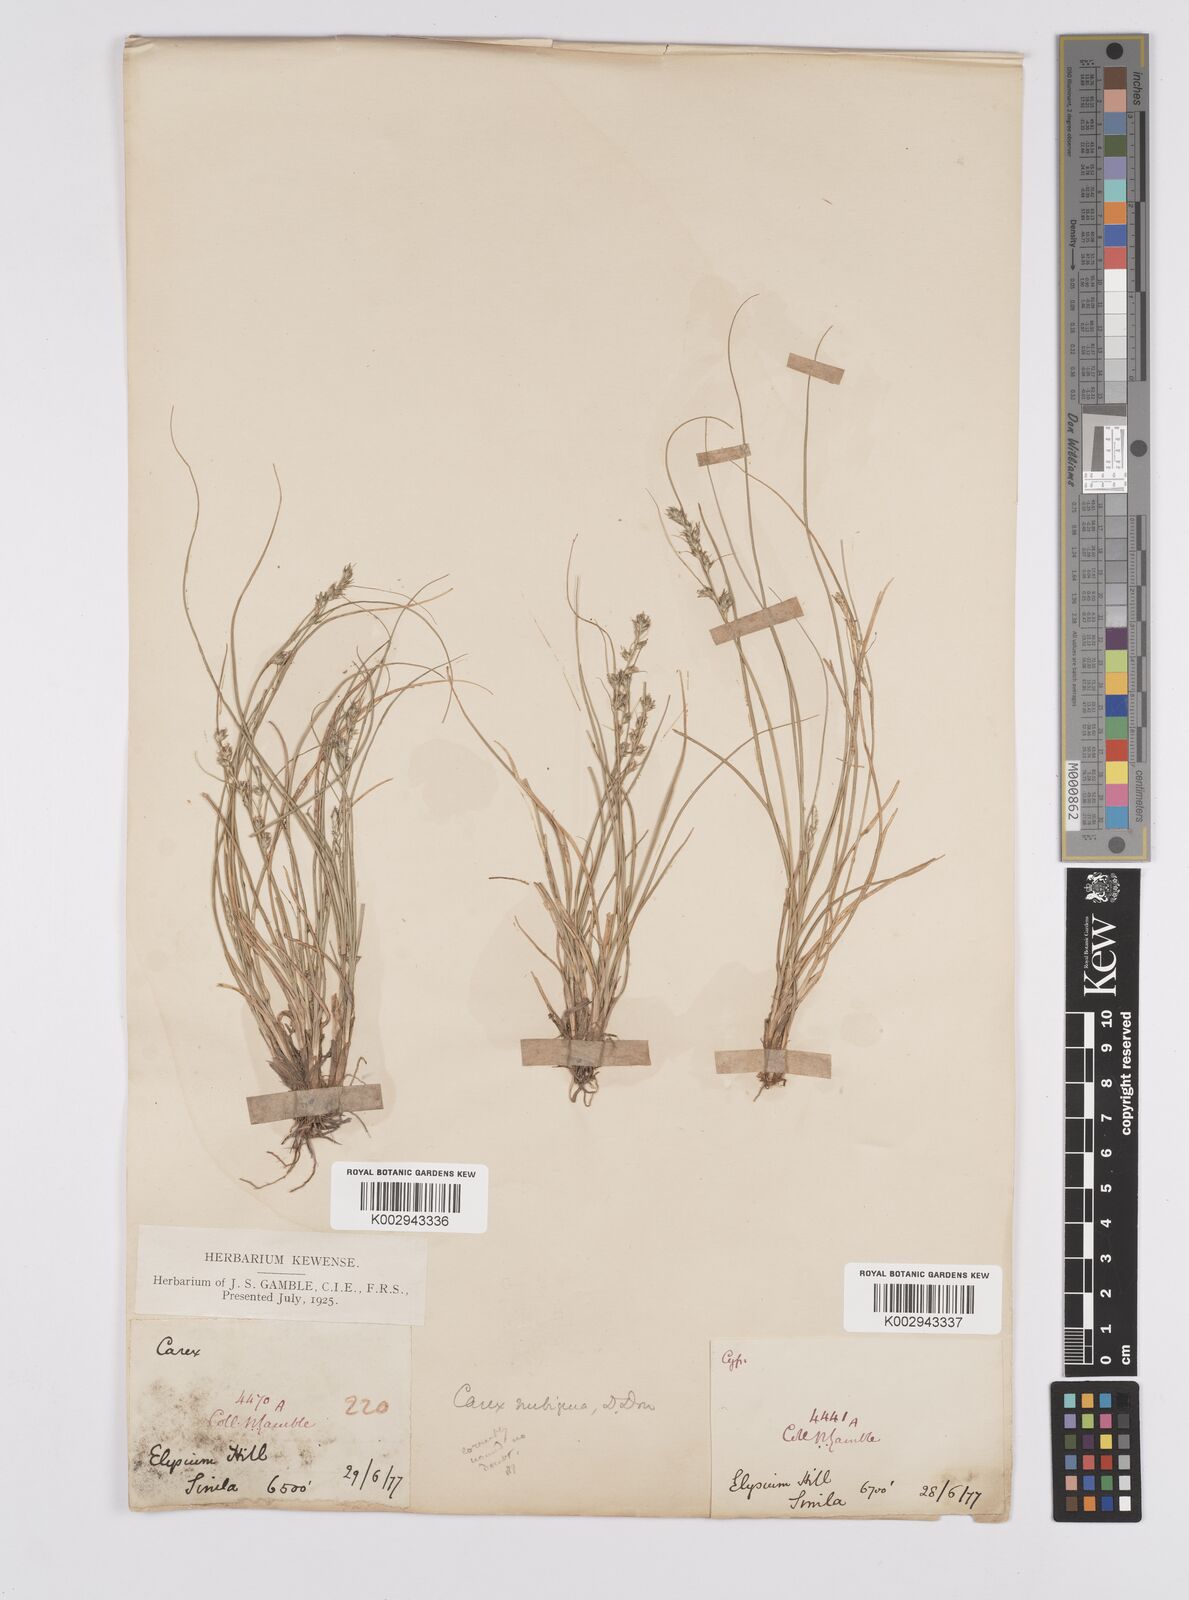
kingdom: Plantae
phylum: Tracheophyta
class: Liliopsida
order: Poales
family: Cyperaceae
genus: Carex
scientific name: Carex nubigena
